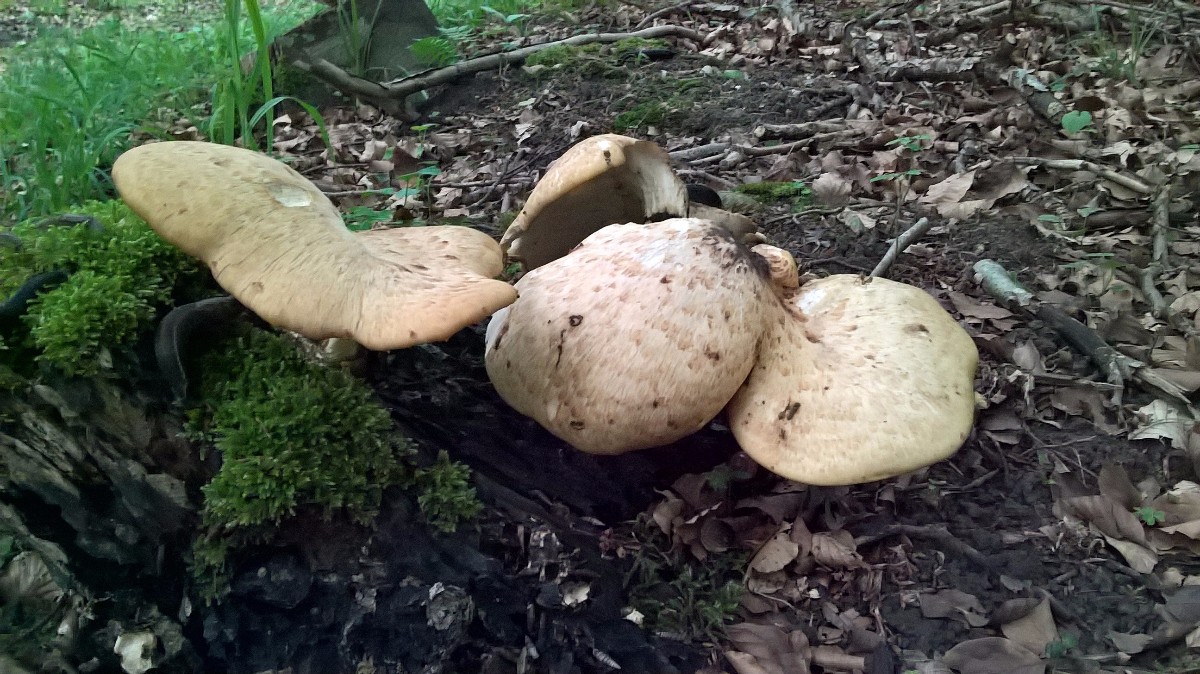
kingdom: Fungi
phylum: Basidiomycota
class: Agaricomycetes
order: Polyporales
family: Polyporaceae
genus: Cerioporus
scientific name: Cerioporus squamosus
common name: skællet stilkporesvamp
